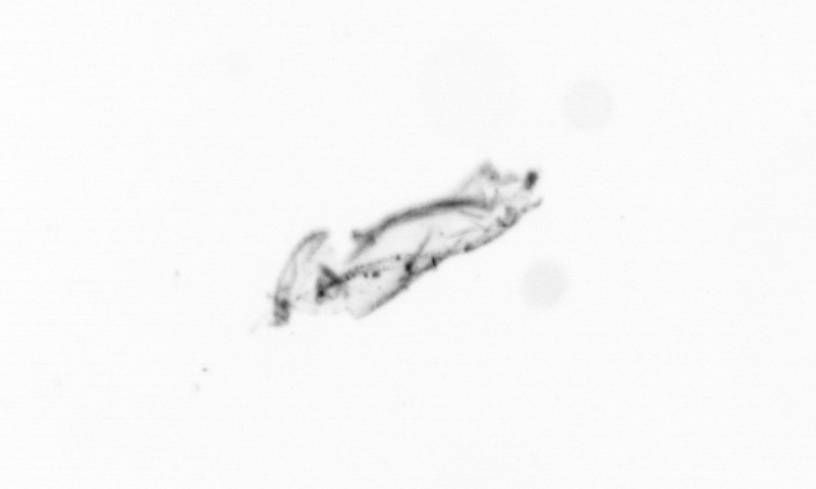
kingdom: Chromista
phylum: Ochrophyta
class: Bacillariophyceae
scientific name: Bacillariophyceae
